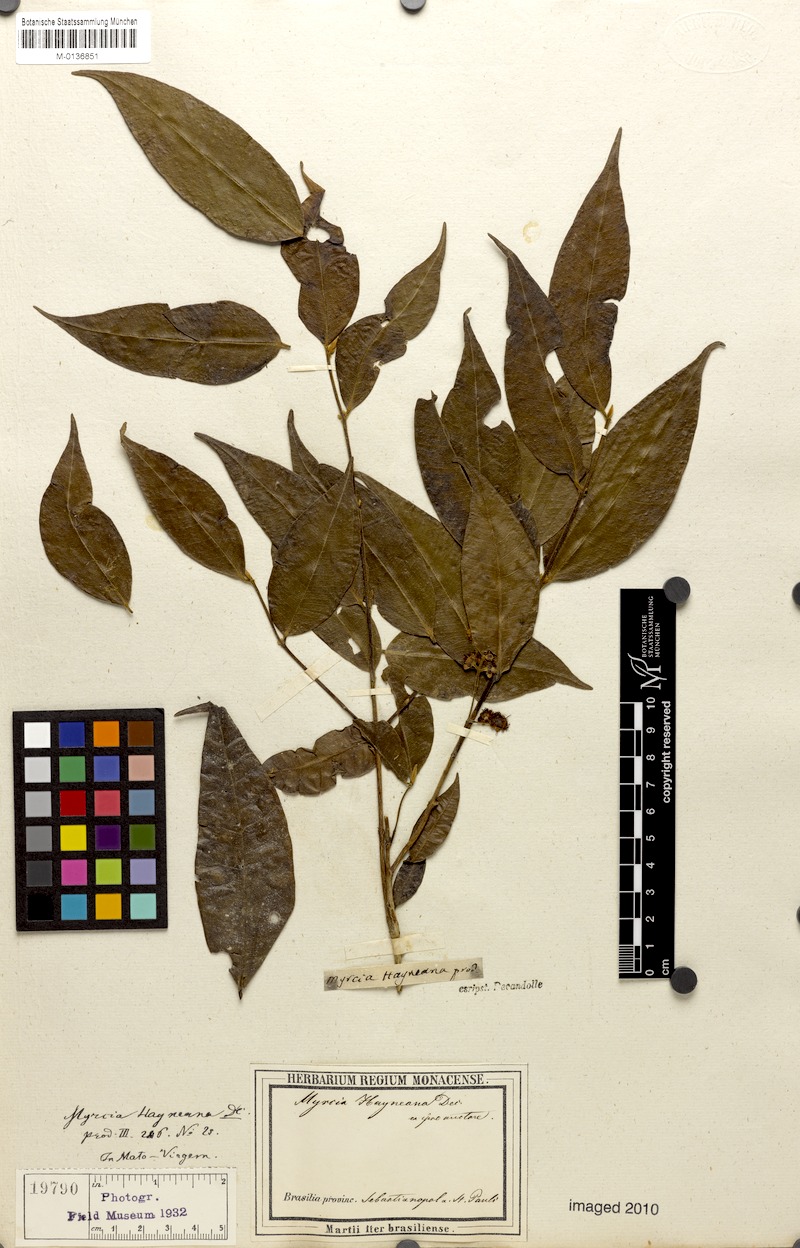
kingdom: Plantae
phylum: Tracheophyta
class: Magnoliopsida
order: Myrtales
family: Myrtaceae
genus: Myrcia
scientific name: Myrcia splendens
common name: Surinam cherry
